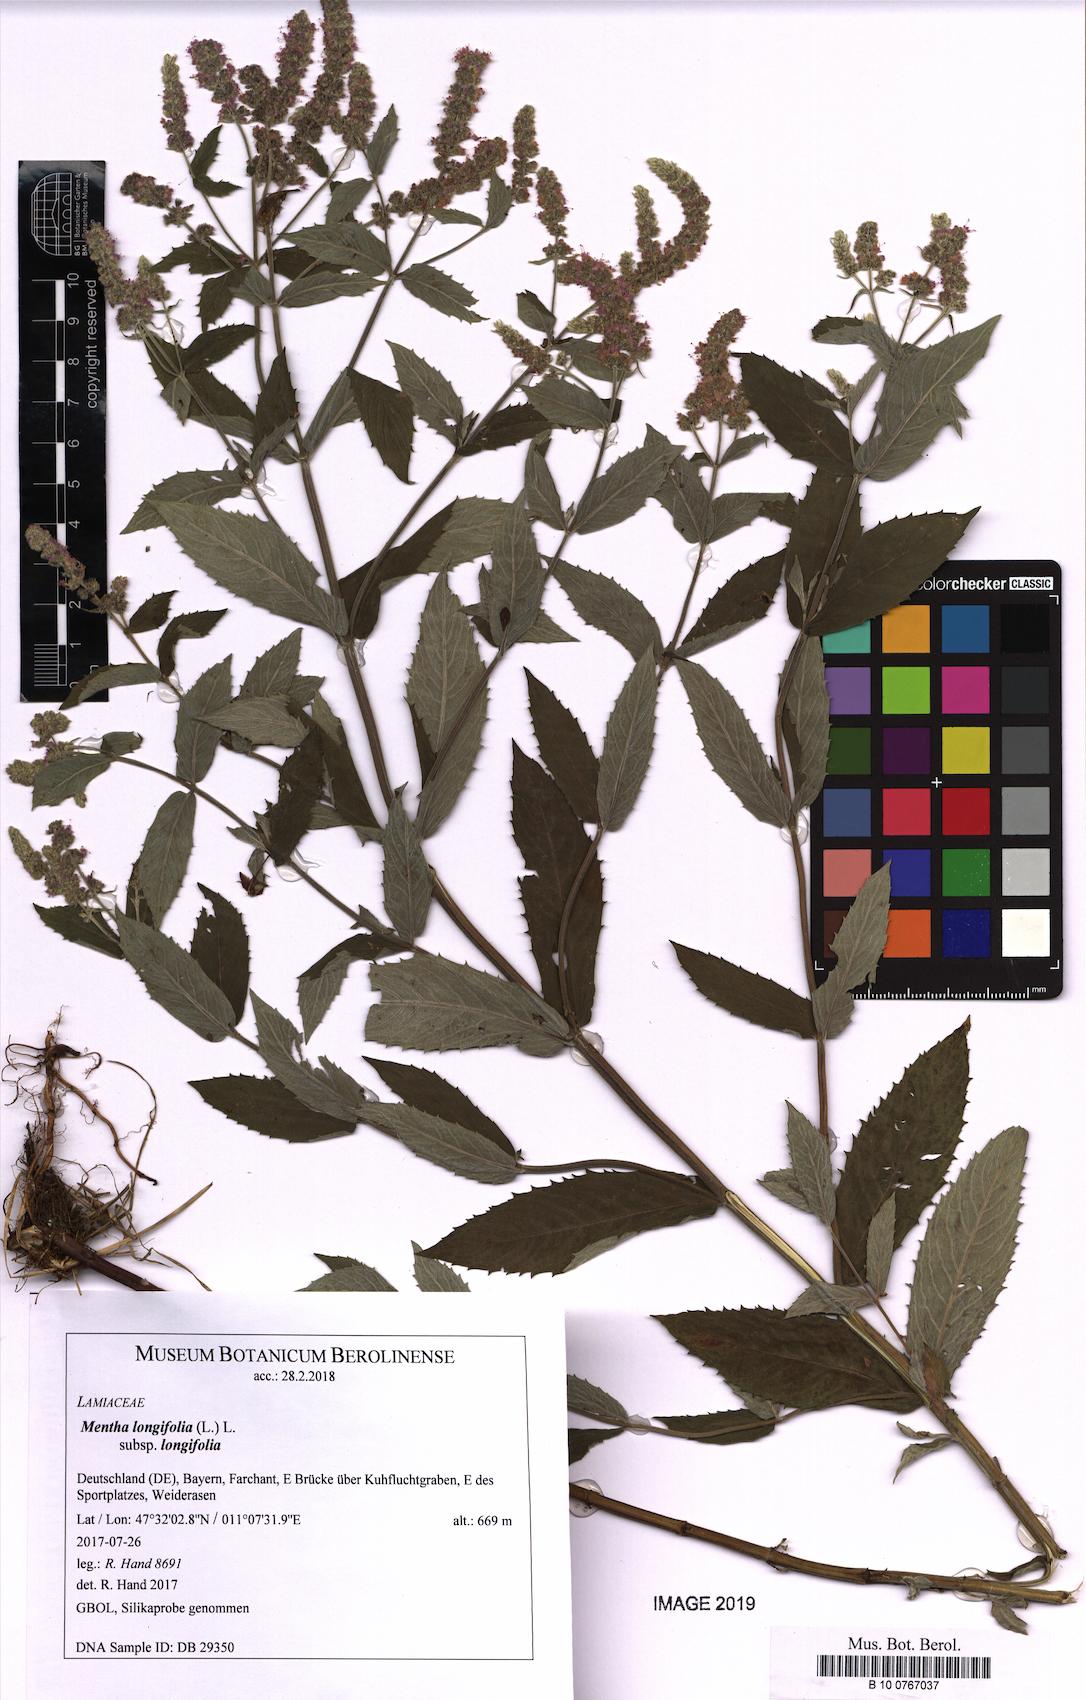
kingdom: Plantae
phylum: Tracheophyta
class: Magnoliopsida
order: Lamiales
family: Lamiaceae
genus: Mentha
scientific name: Mentha longifolia
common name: Horse mint
